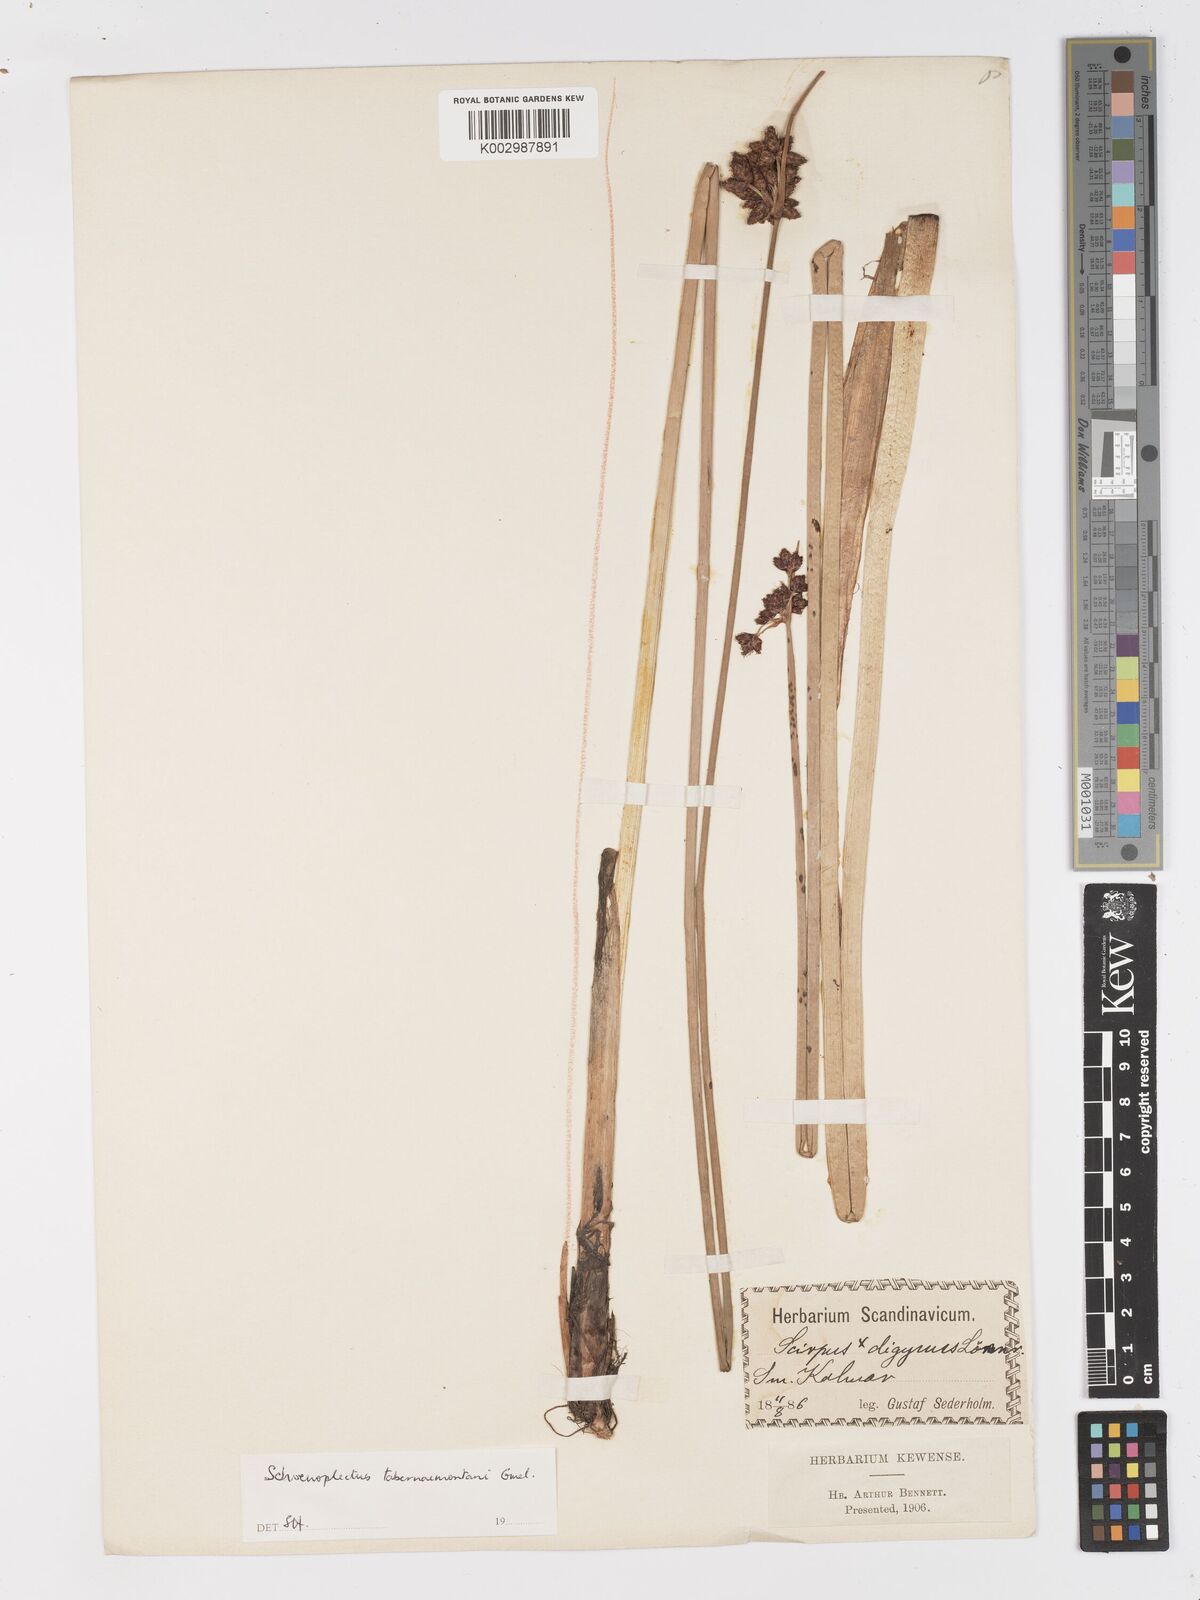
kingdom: Plantae
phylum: Tracheophyta
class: Liliopsida
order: Poales
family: Cyperaceae
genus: Schoenoplectus
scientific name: Schoenoplectus tabernaemontani
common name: Grey club-rush
